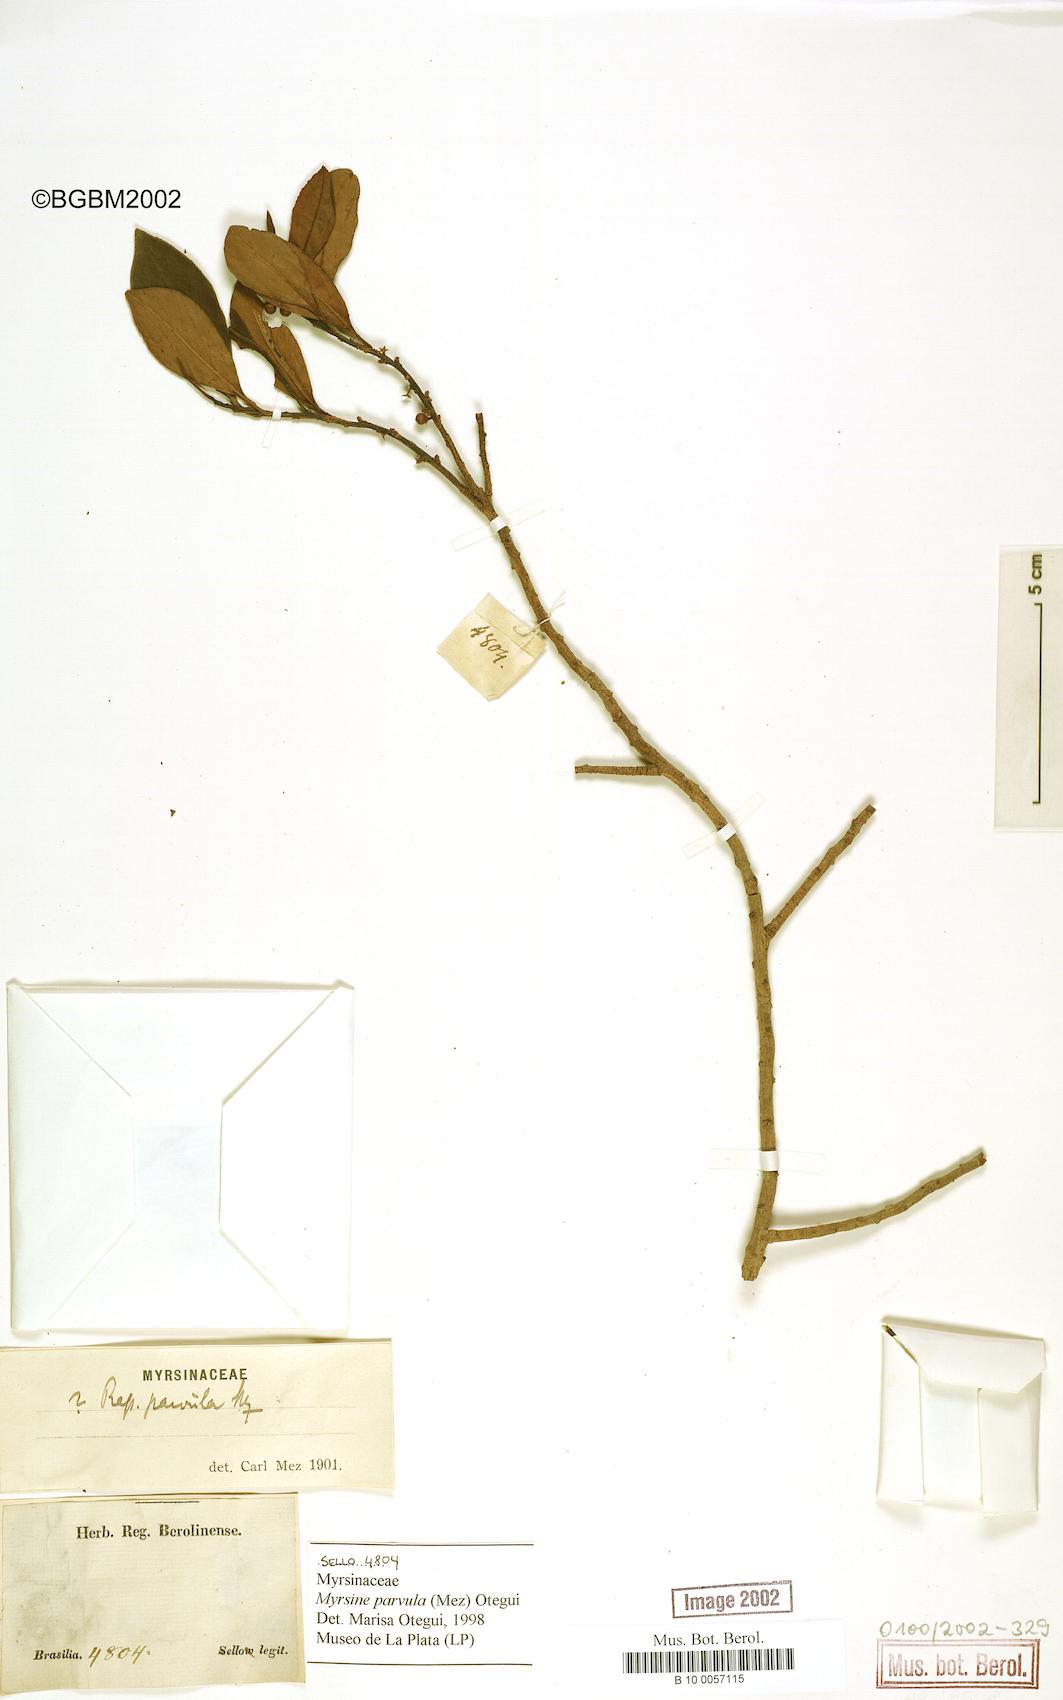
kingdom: Plantae
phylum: Tracheophyta
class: Magnoliopsida
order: Ericales
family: Primulaceae
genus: Myrsine
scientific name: Myrsine lorentziana
